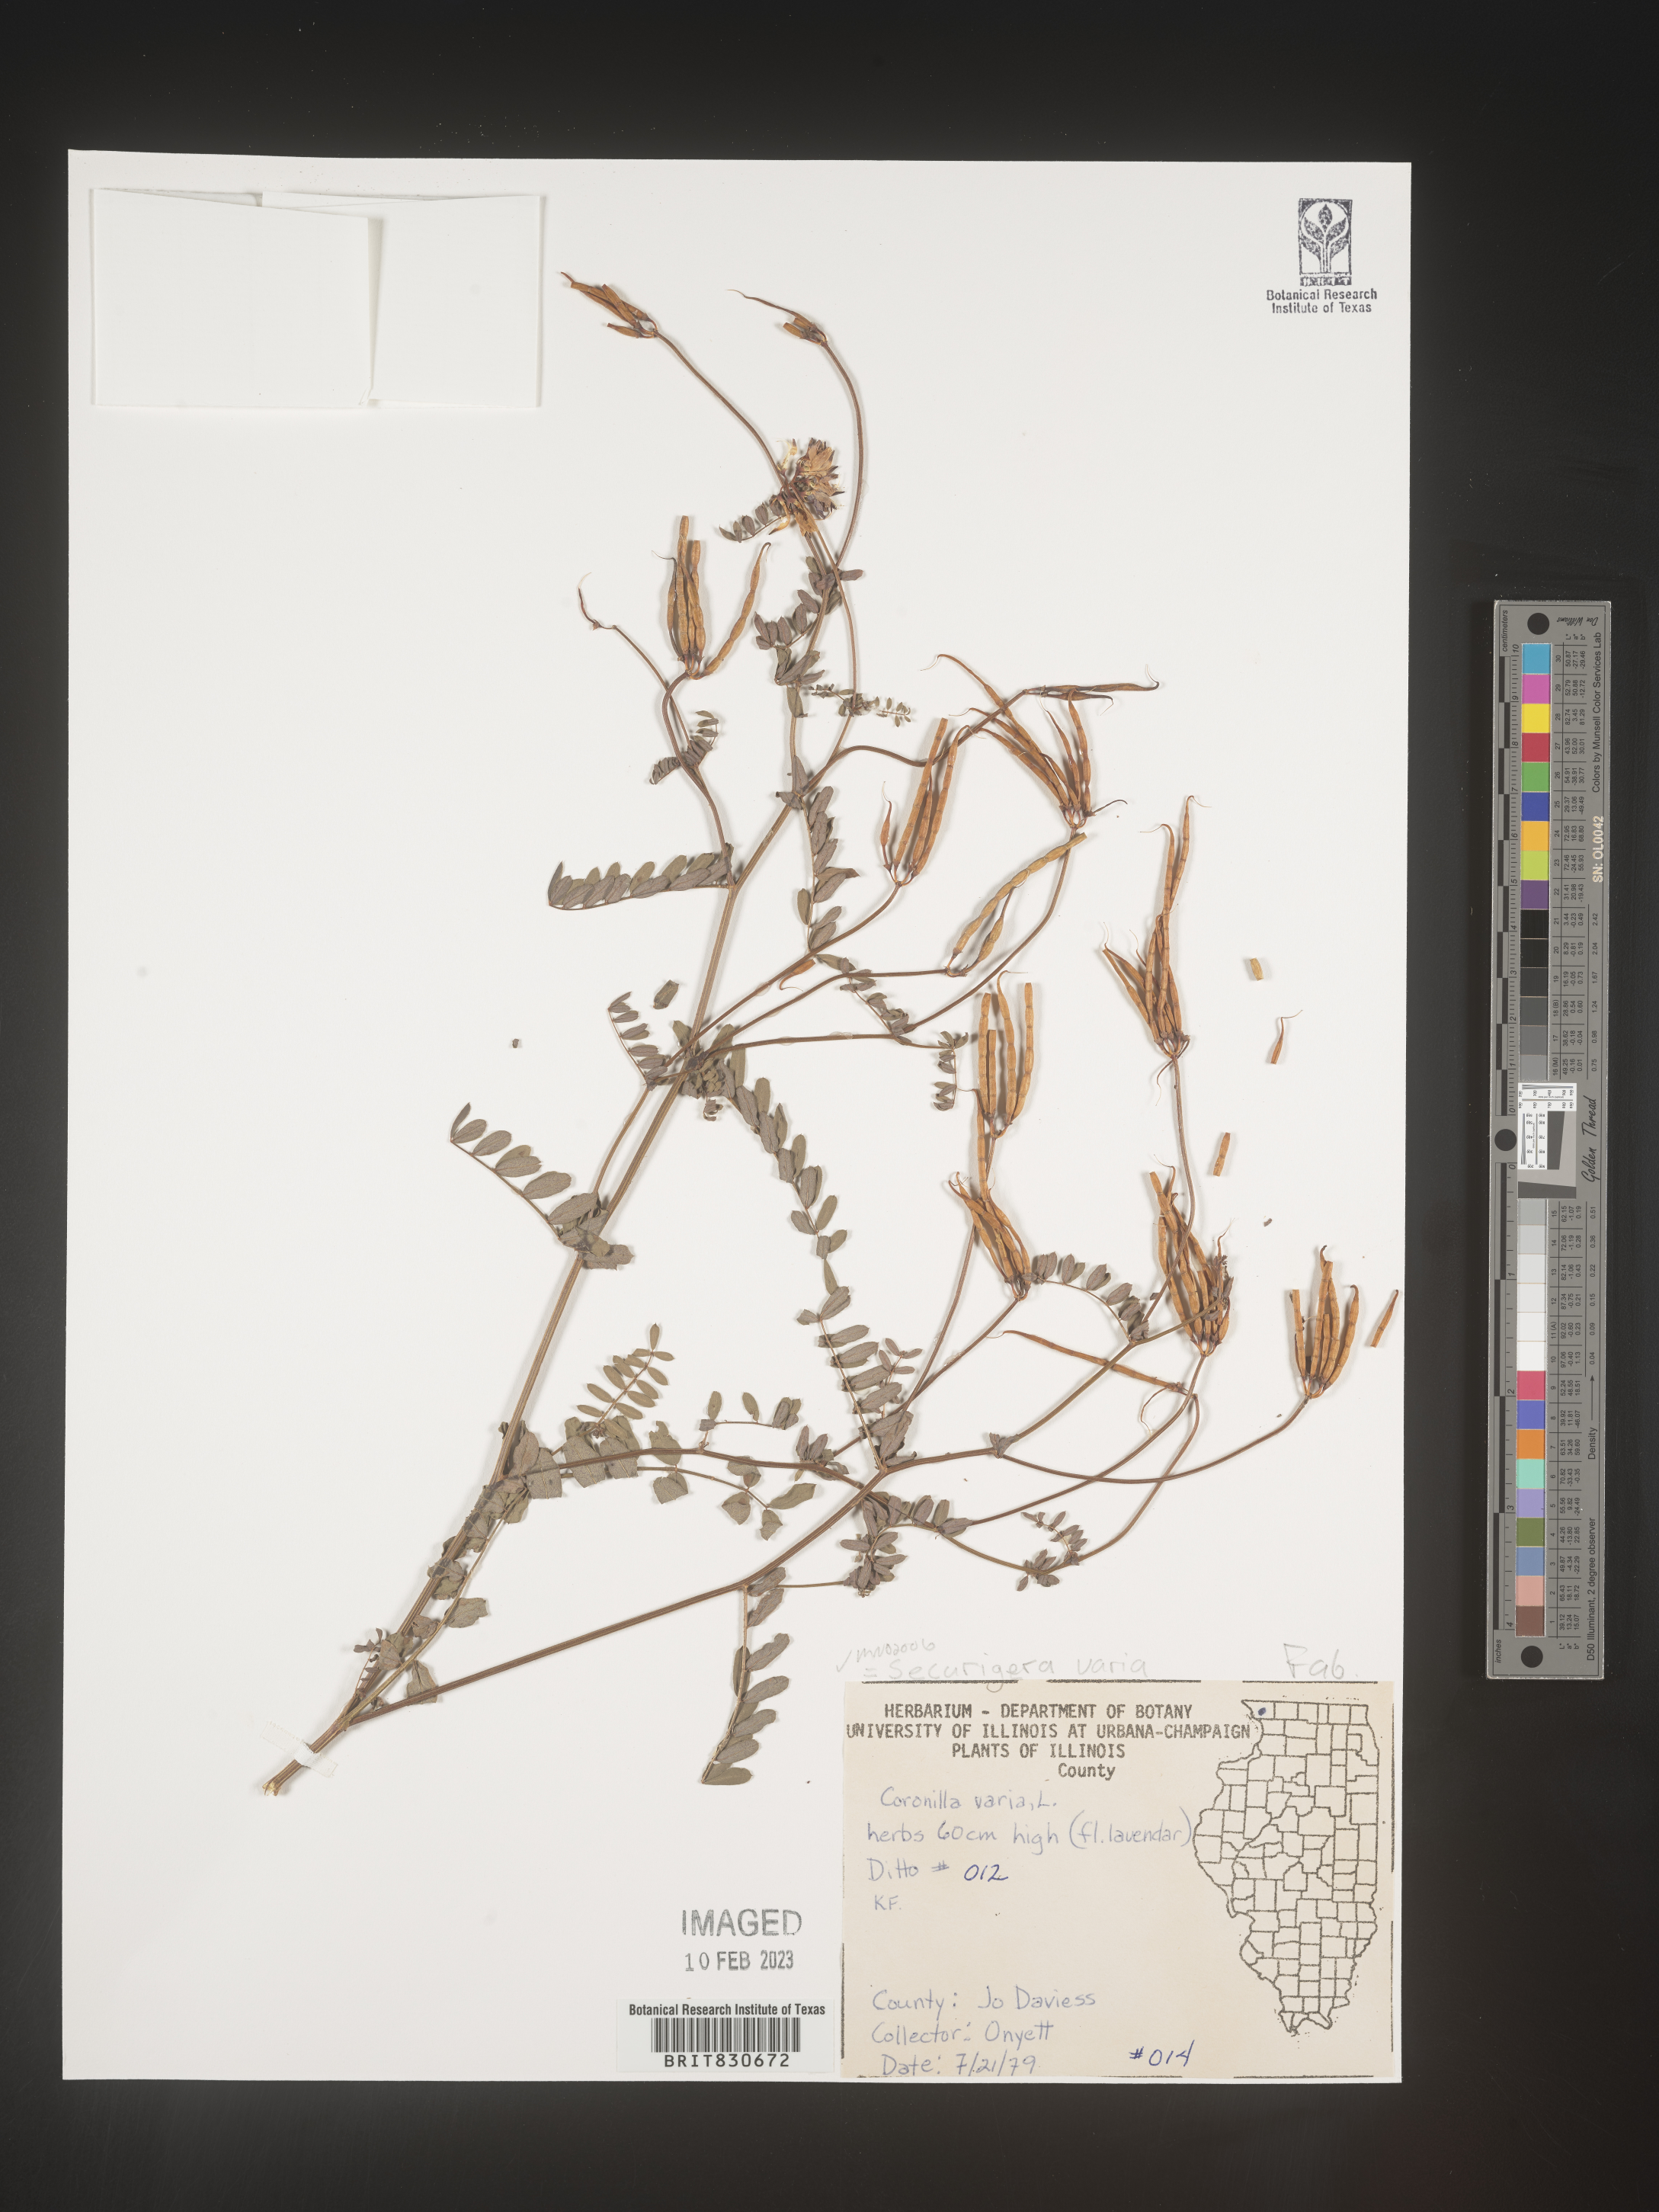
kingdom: Animalia
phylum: Arthropoda
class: Insecta
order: Orthoptera
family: Romaleidae
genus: Securigera
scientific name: Securigera
